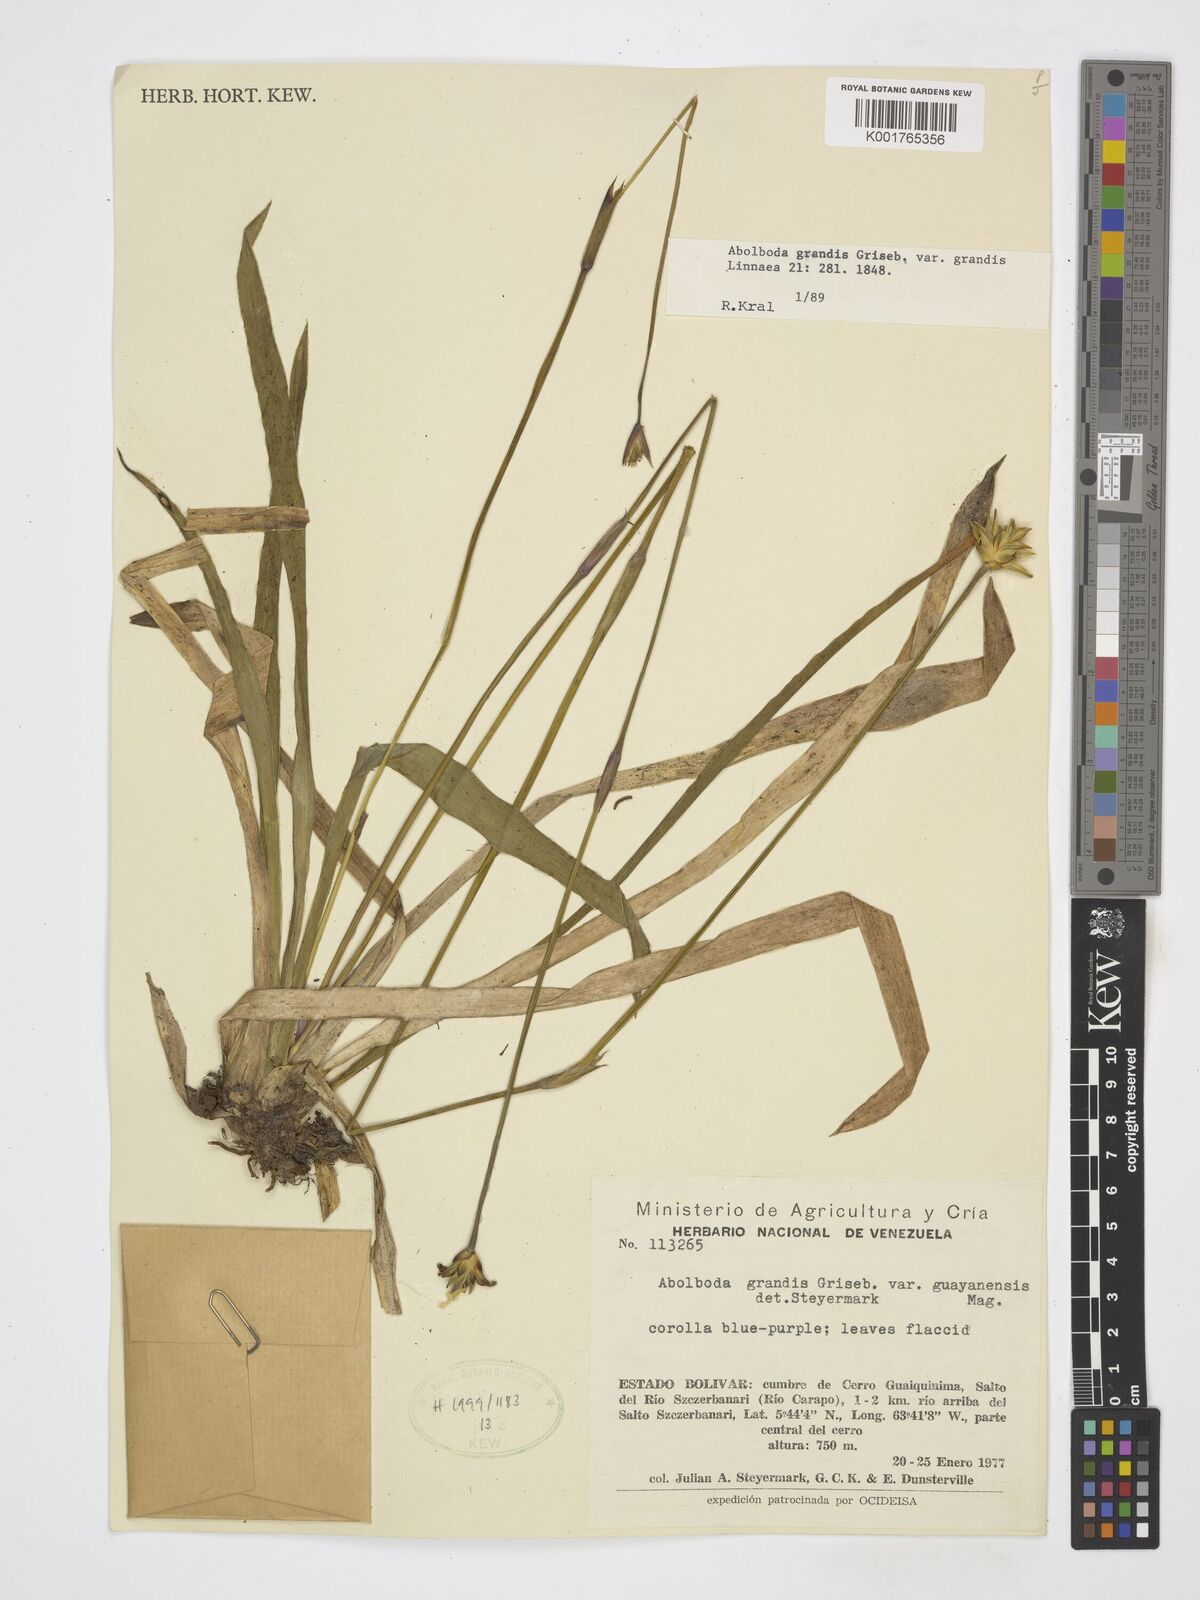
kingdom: Plantae
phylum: Tracheophyta
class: Liliopsida
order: Poales
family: Xyridaceae
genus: Abolboda
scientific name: Abolboda grandis
